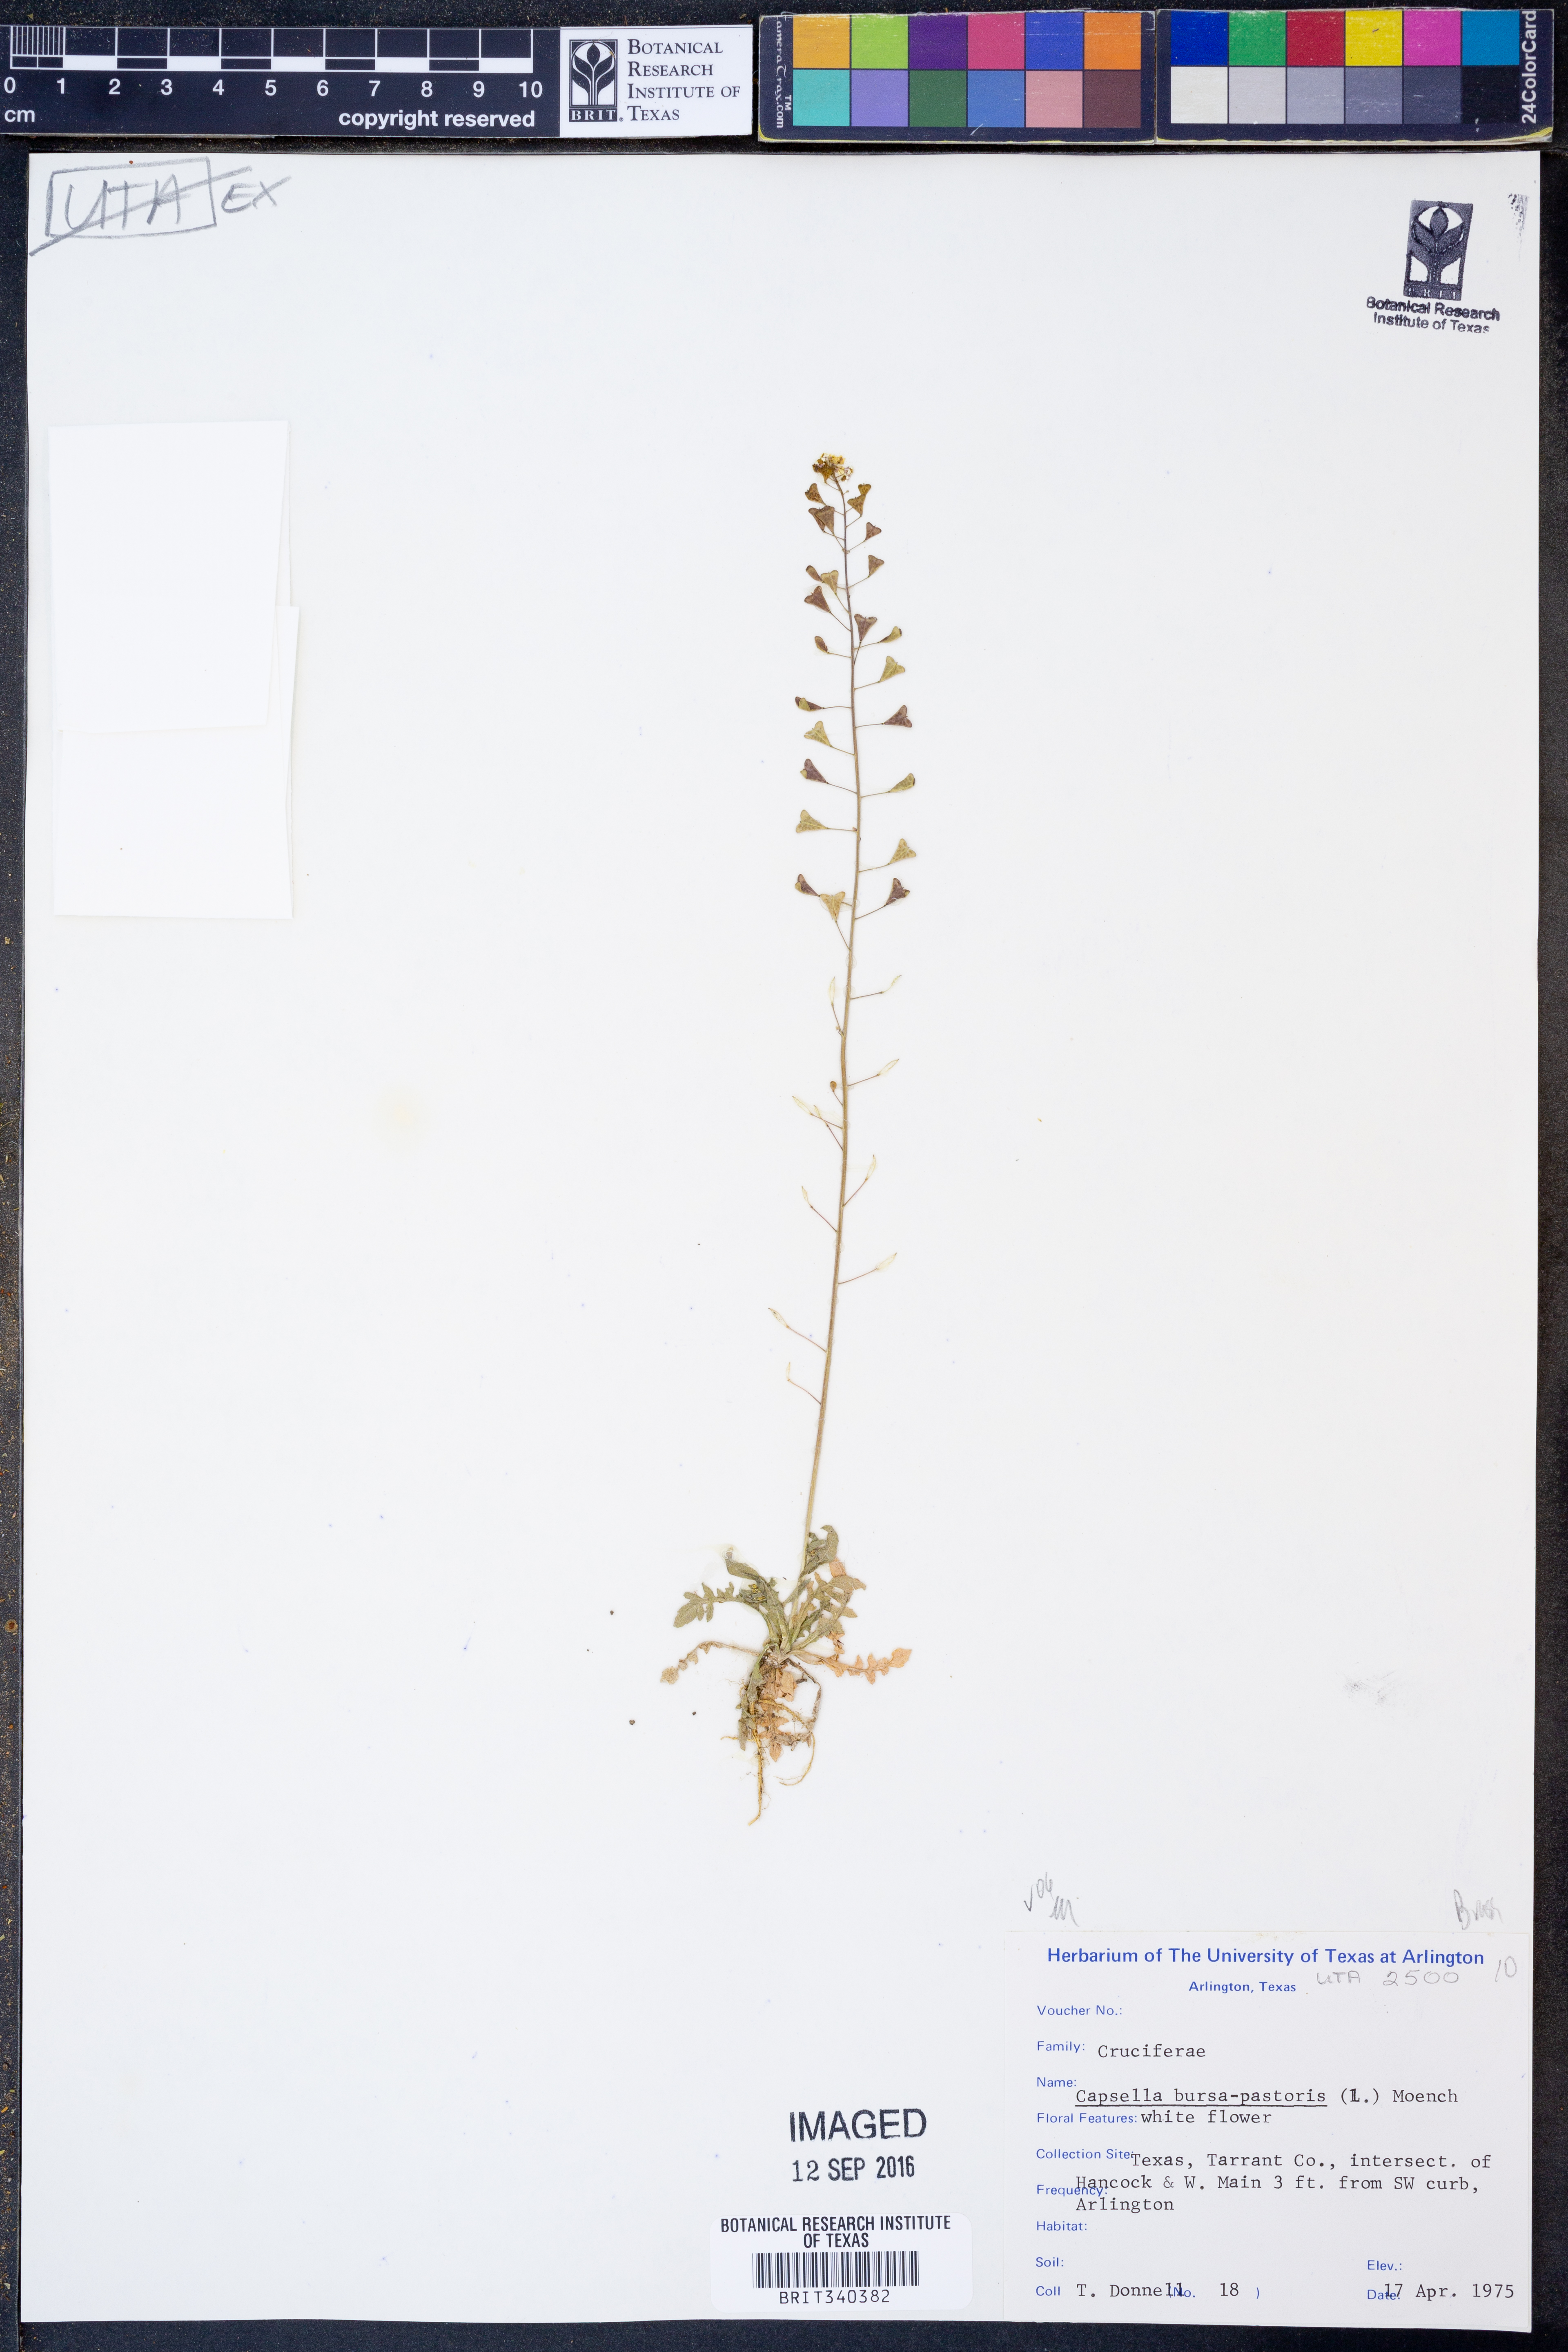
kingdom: Plantae
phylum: Tracheophyta
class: Magnoliopsida
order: Brassicales
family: Brassicaceae
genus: Capsella
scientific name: Capsella bursa-pastoris
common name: Shepherd's purse
